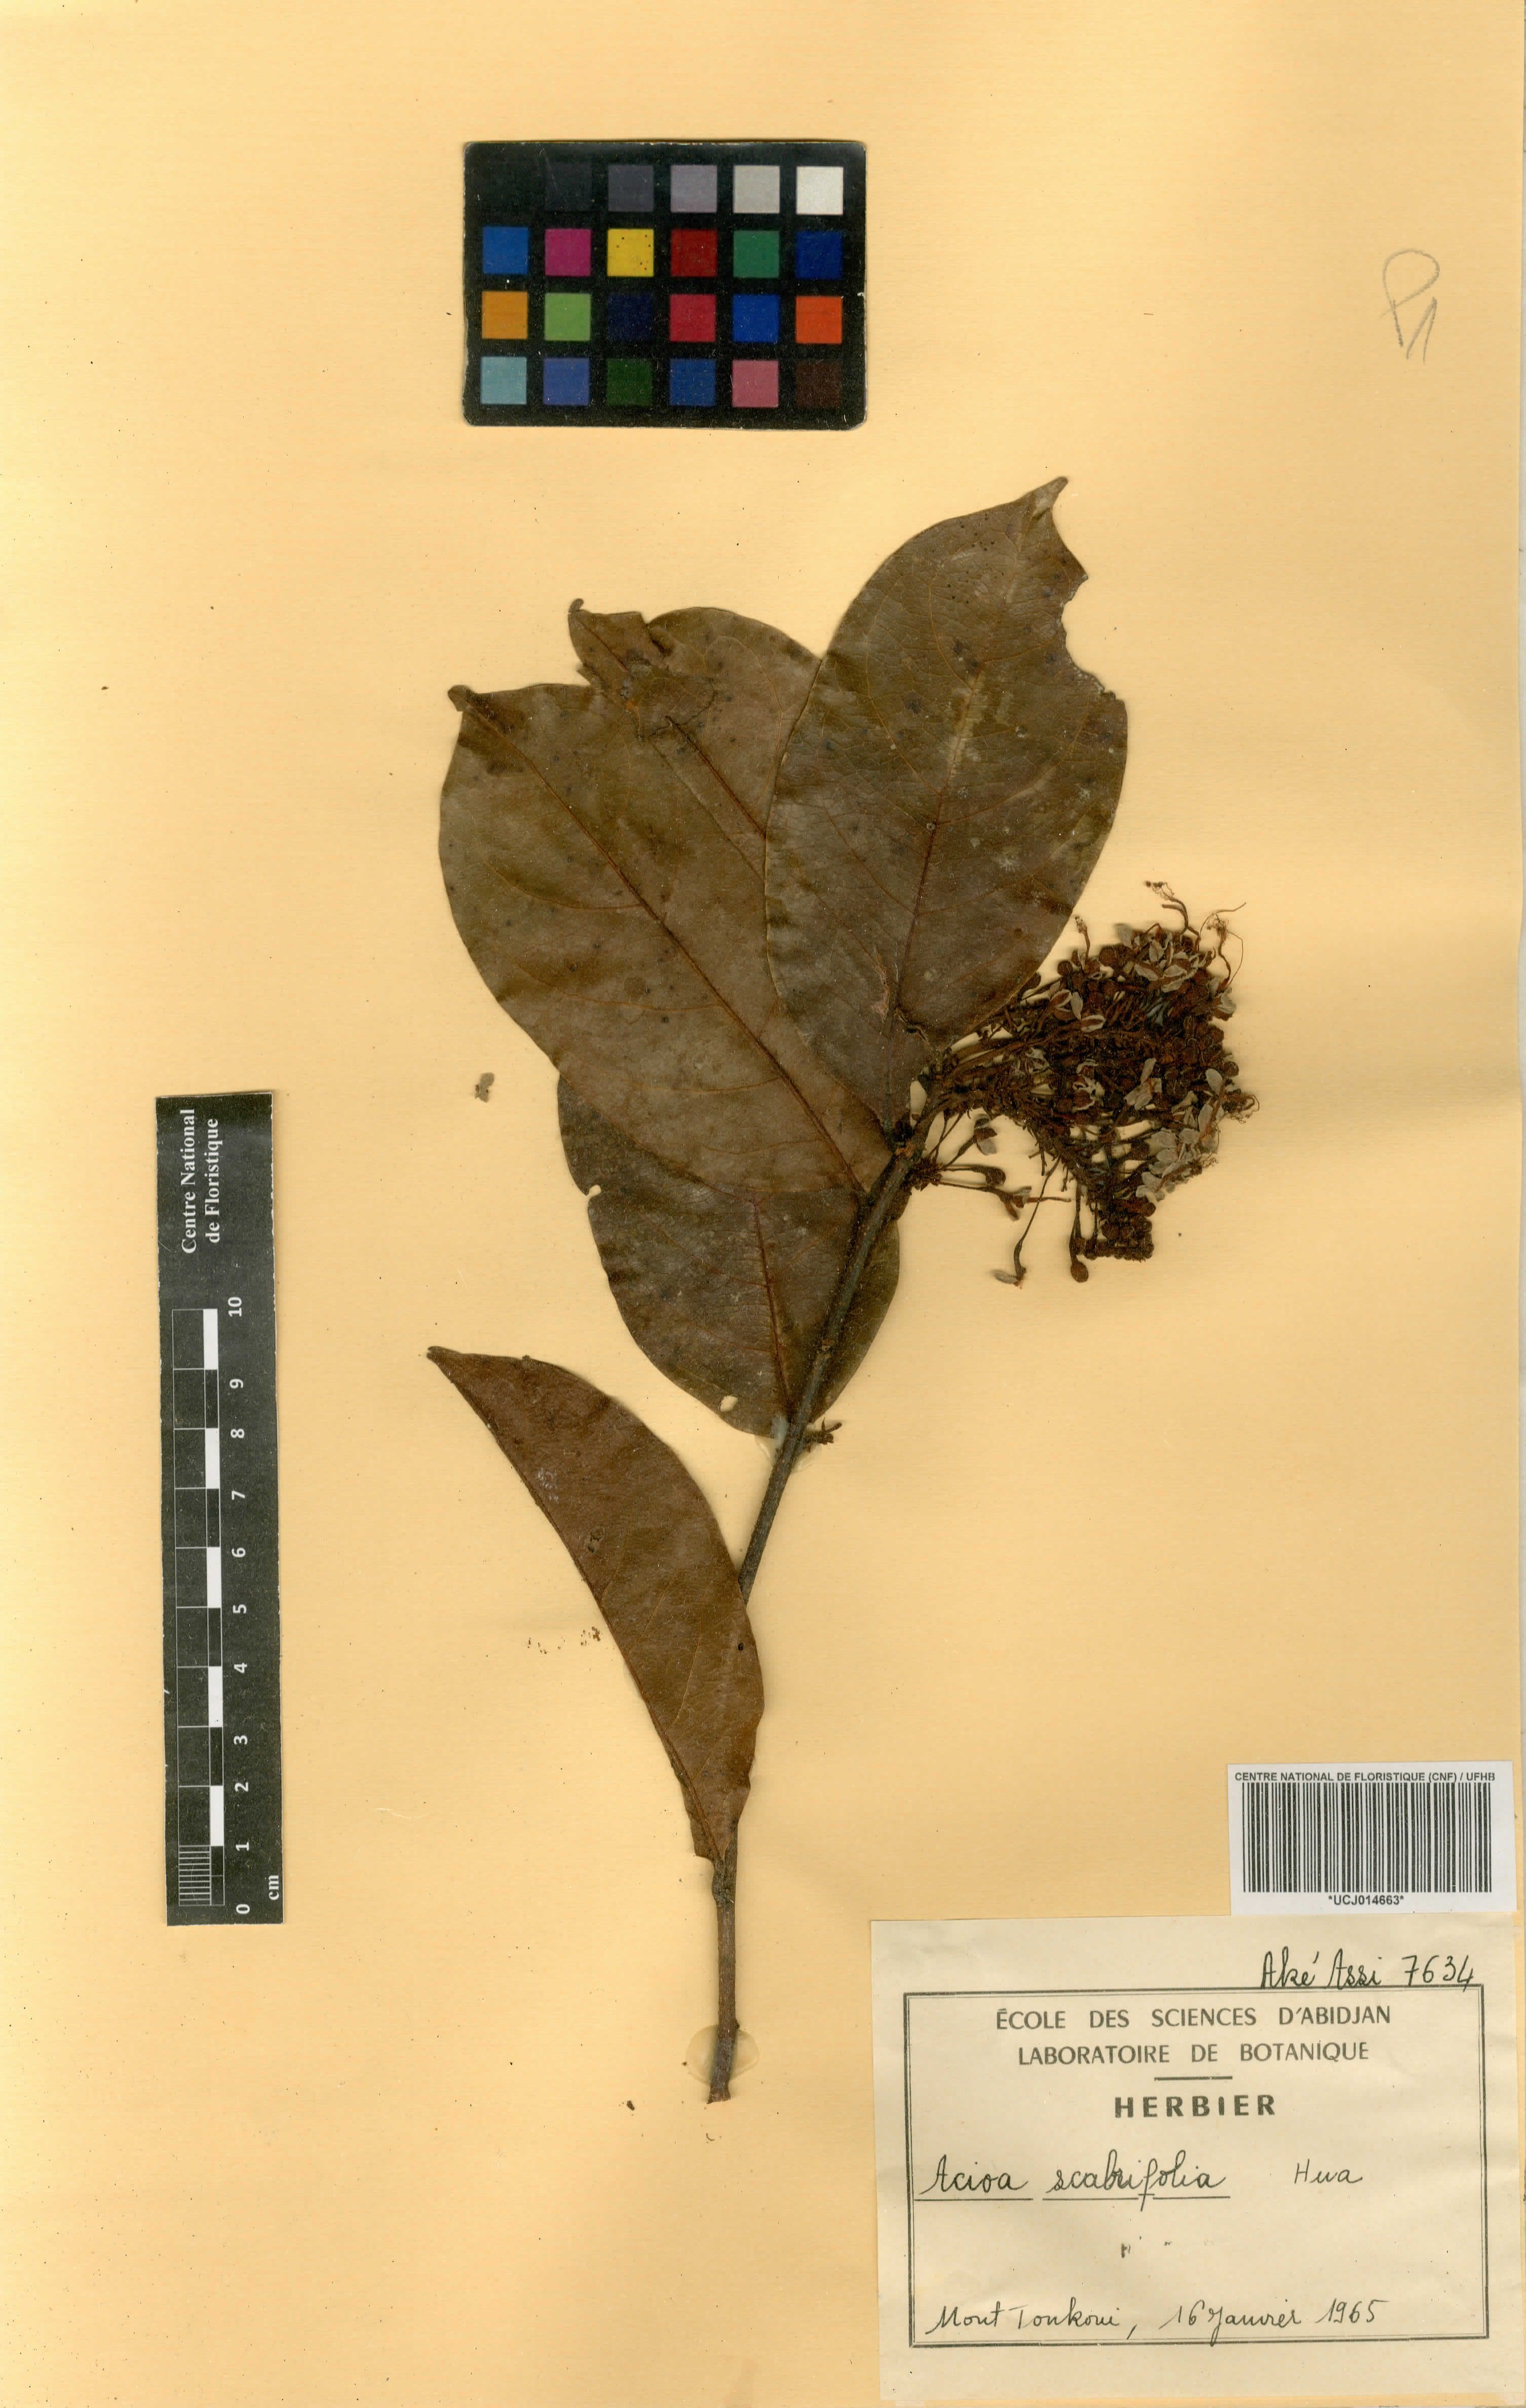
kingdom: Plantae
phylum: Tracheophyta
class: Magnoliopsida
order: Malpighiales
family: Chrysobalanaceae
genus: Dactyladenia
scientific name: Dactyladenia scabrifolia
